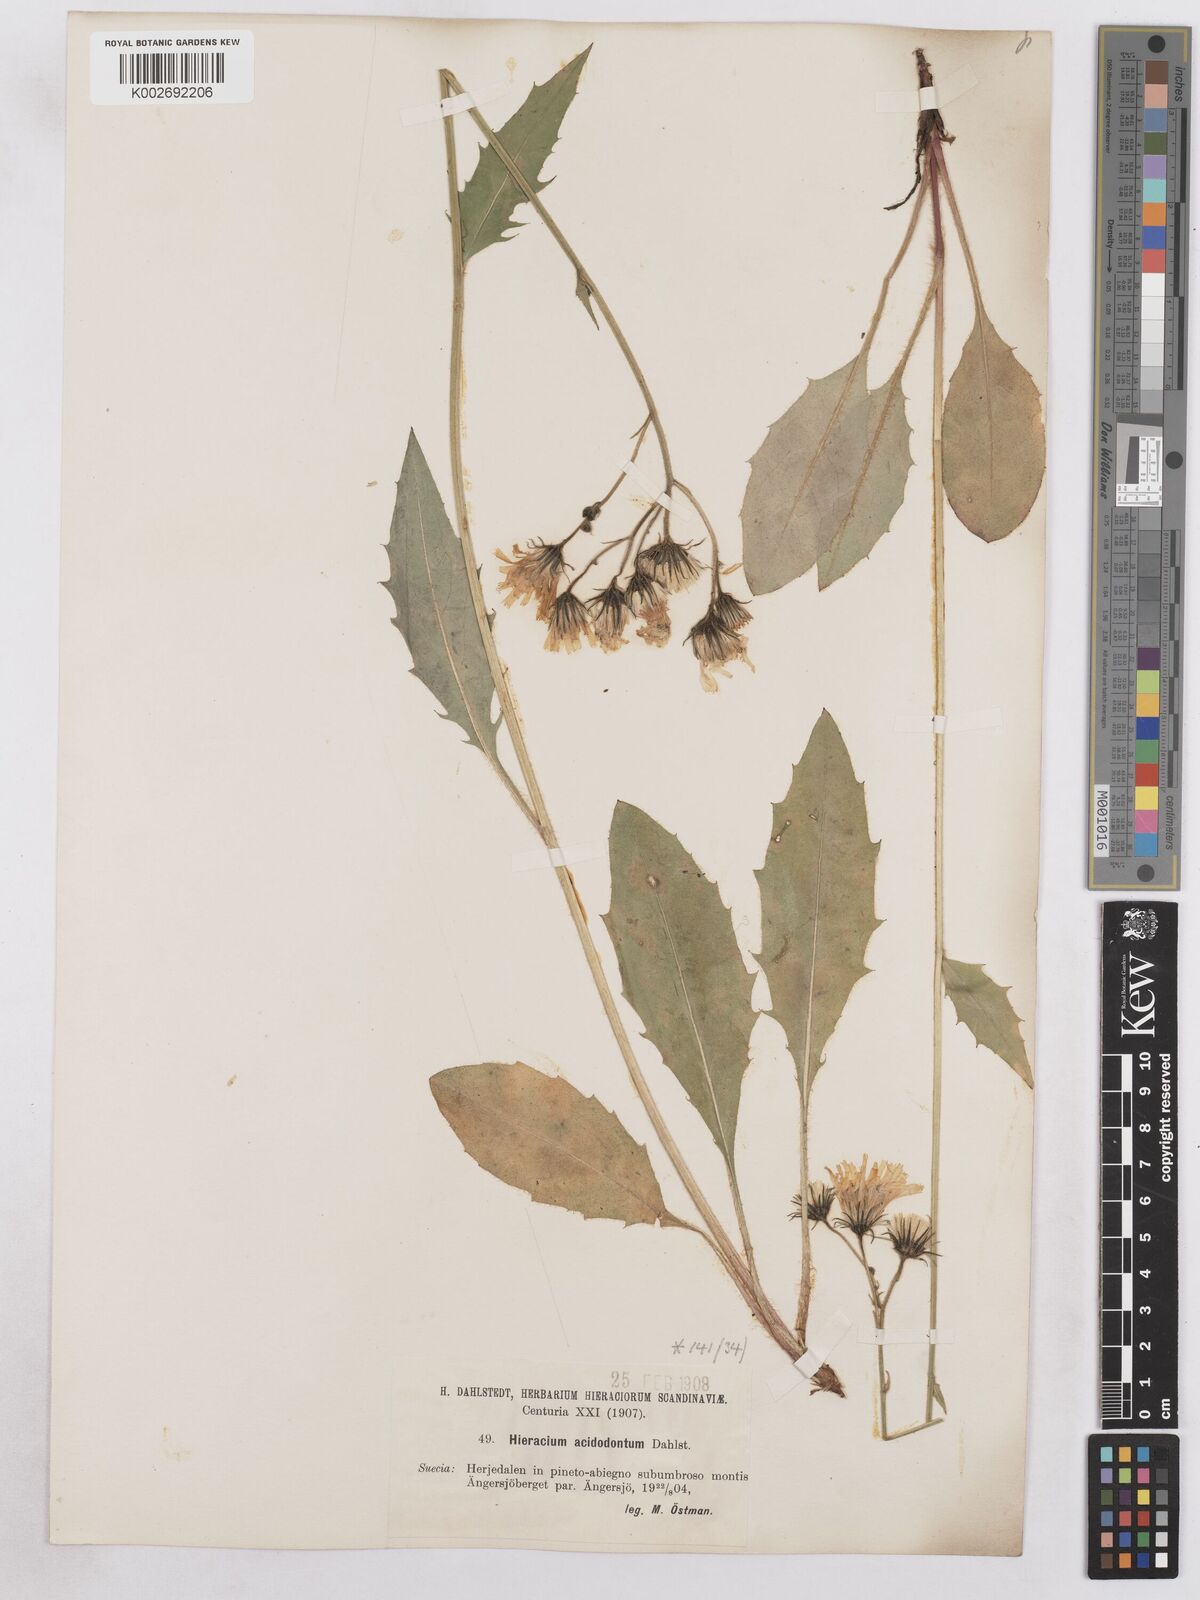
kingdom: Plantae
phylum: Tracheophyta
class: Magnoliopsida
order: Asterales
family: Asteraceae
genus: Hieracium
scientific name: Hieracium diaphanoides
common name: Fine-bracted hawkweed
